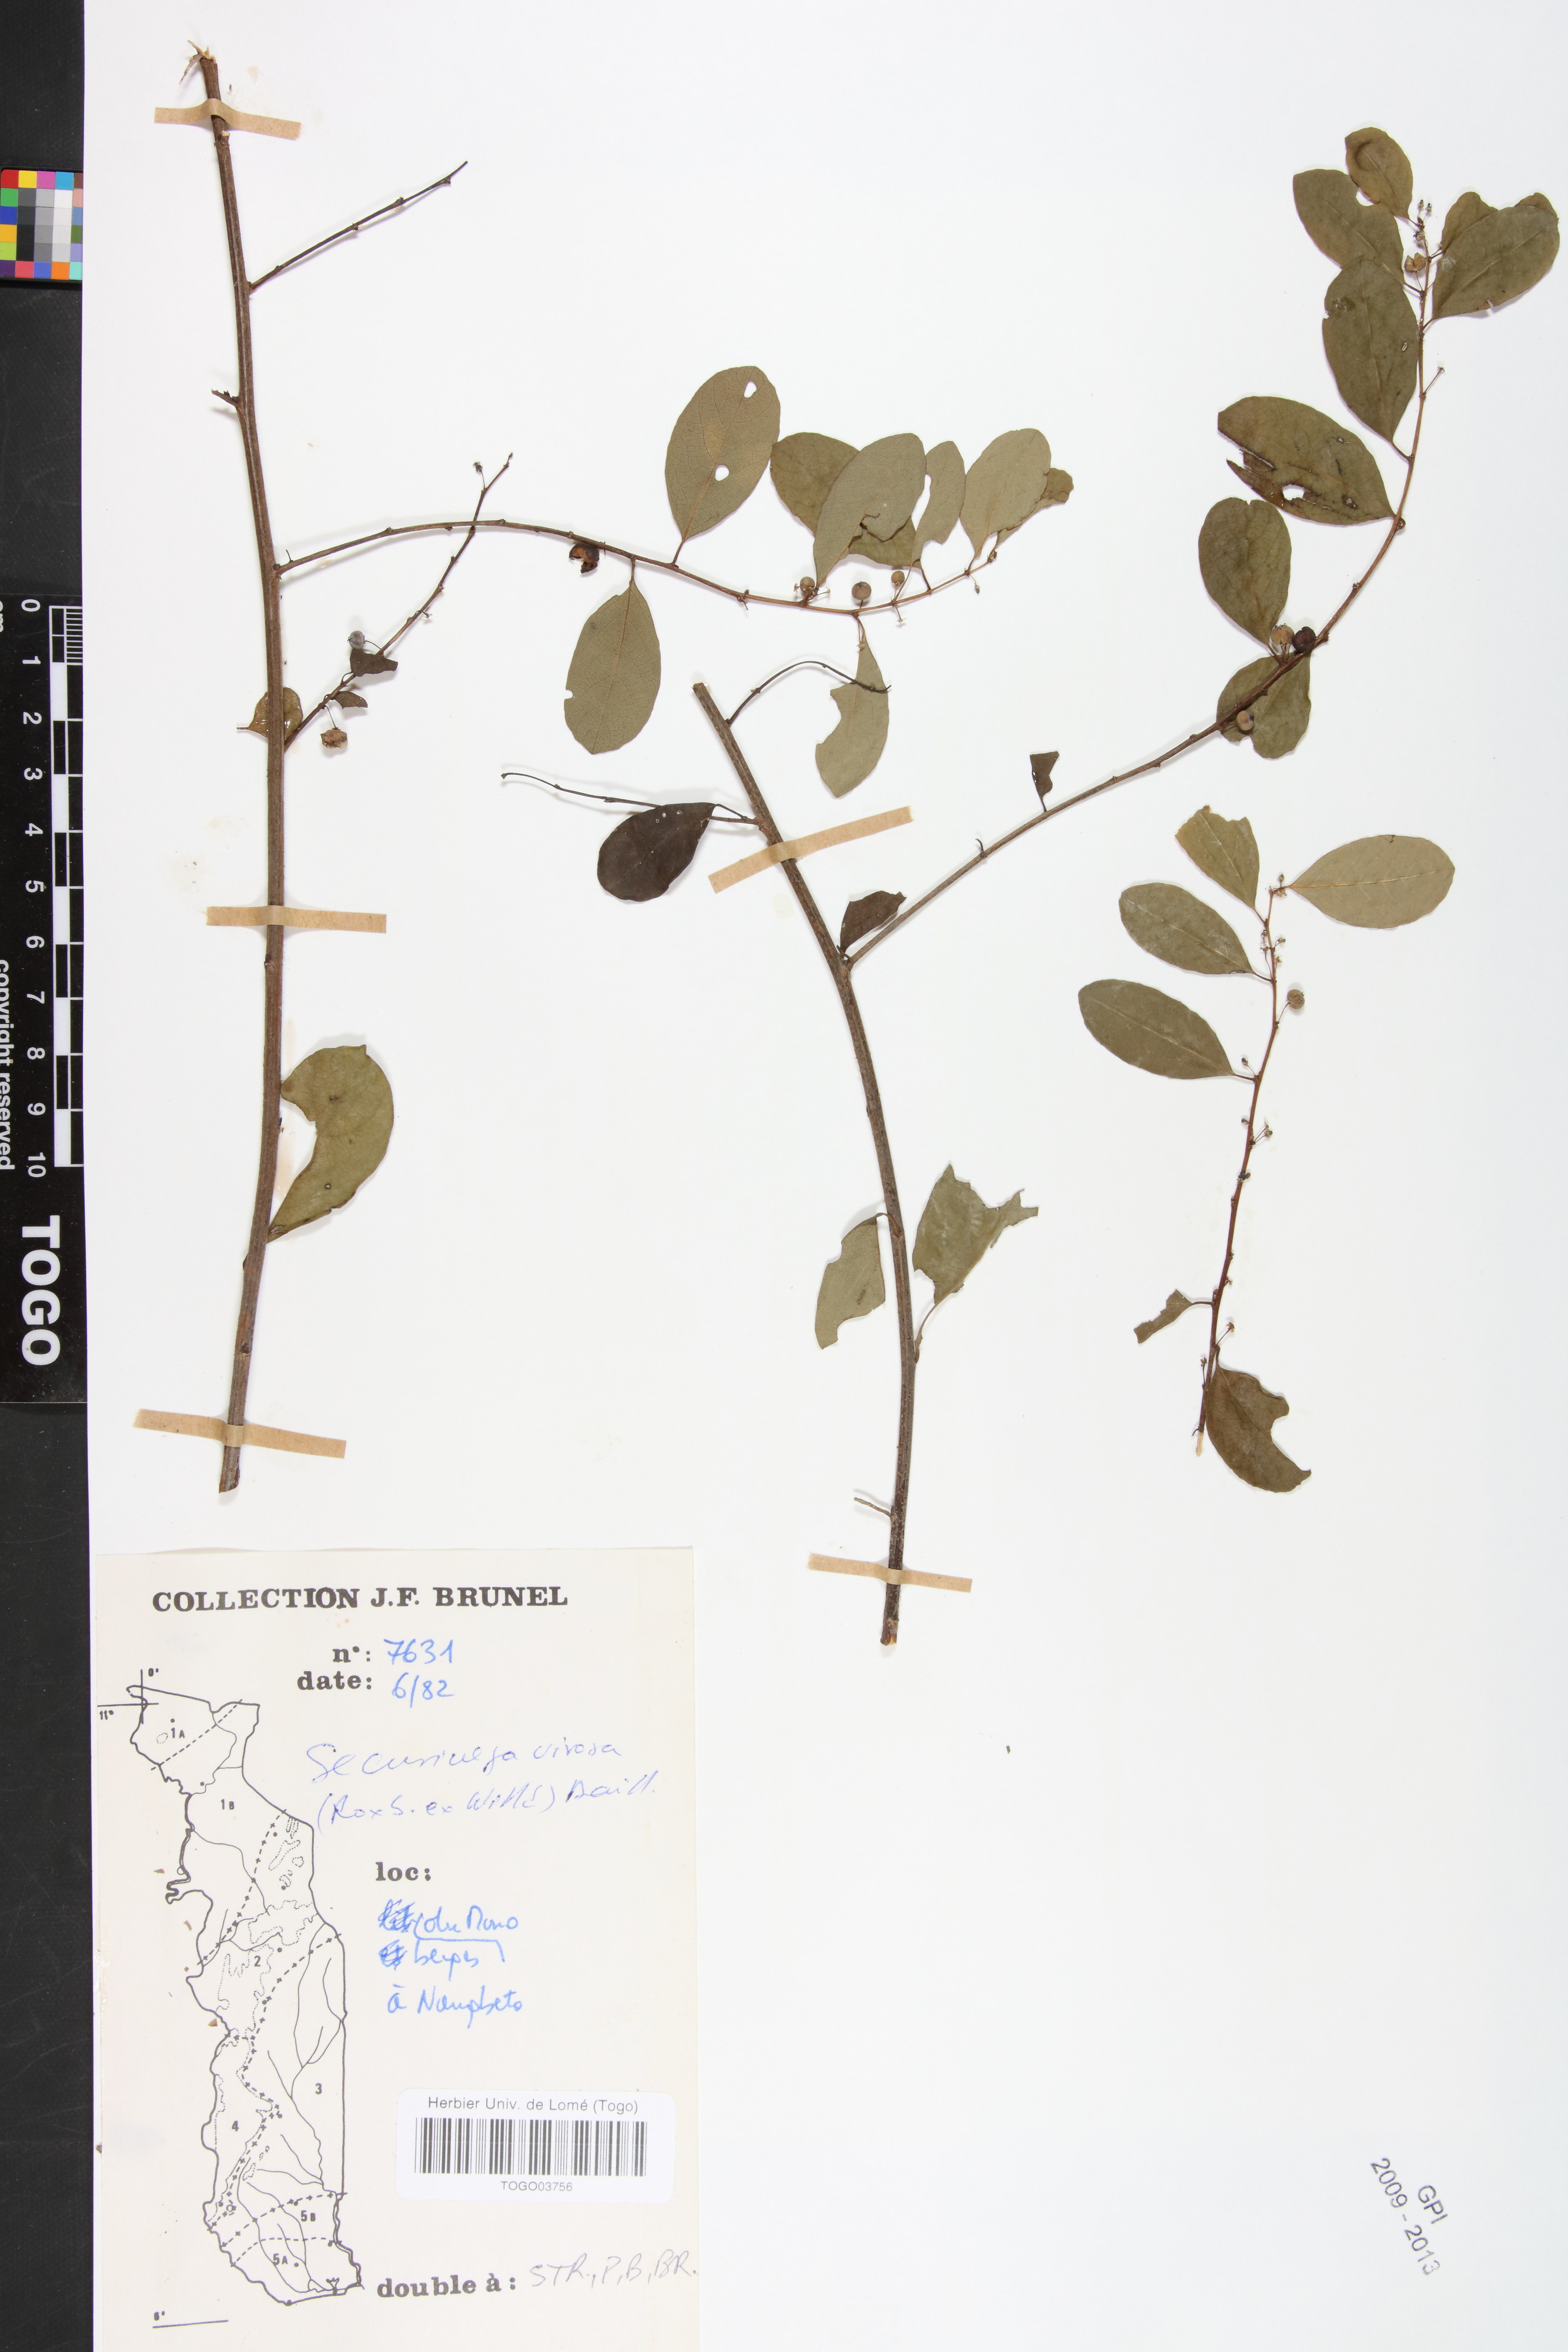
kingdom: Plantae
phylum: Tracheophyta
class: Magnoliopsida
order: Malpighiales
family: Phyllanthaceae
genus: Flueggea
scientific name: Flueggea virosa
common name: Common bushweed
